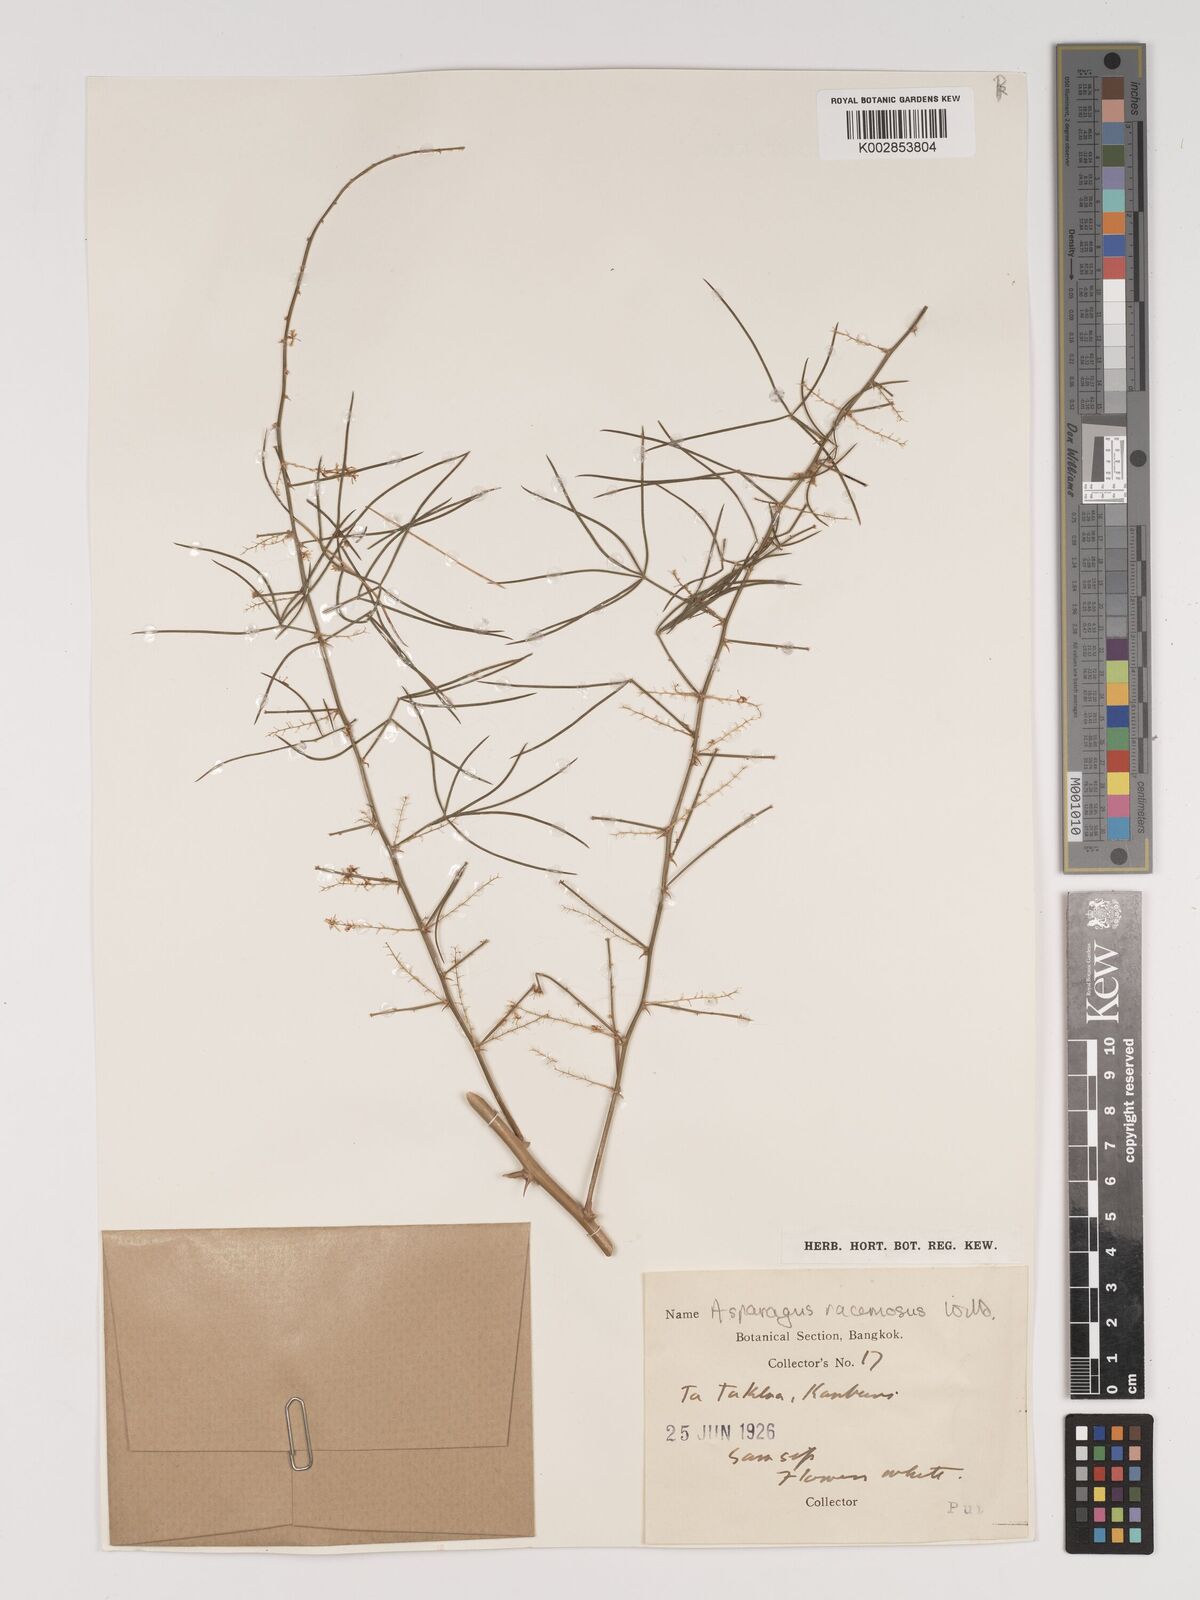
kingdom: Plantae
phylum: Tracheophyta
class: Liliopsida
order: Asparagales
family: Asparagaceae
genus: Asparagus
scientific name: Asparagus racemosus
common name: Asparagus-fern
